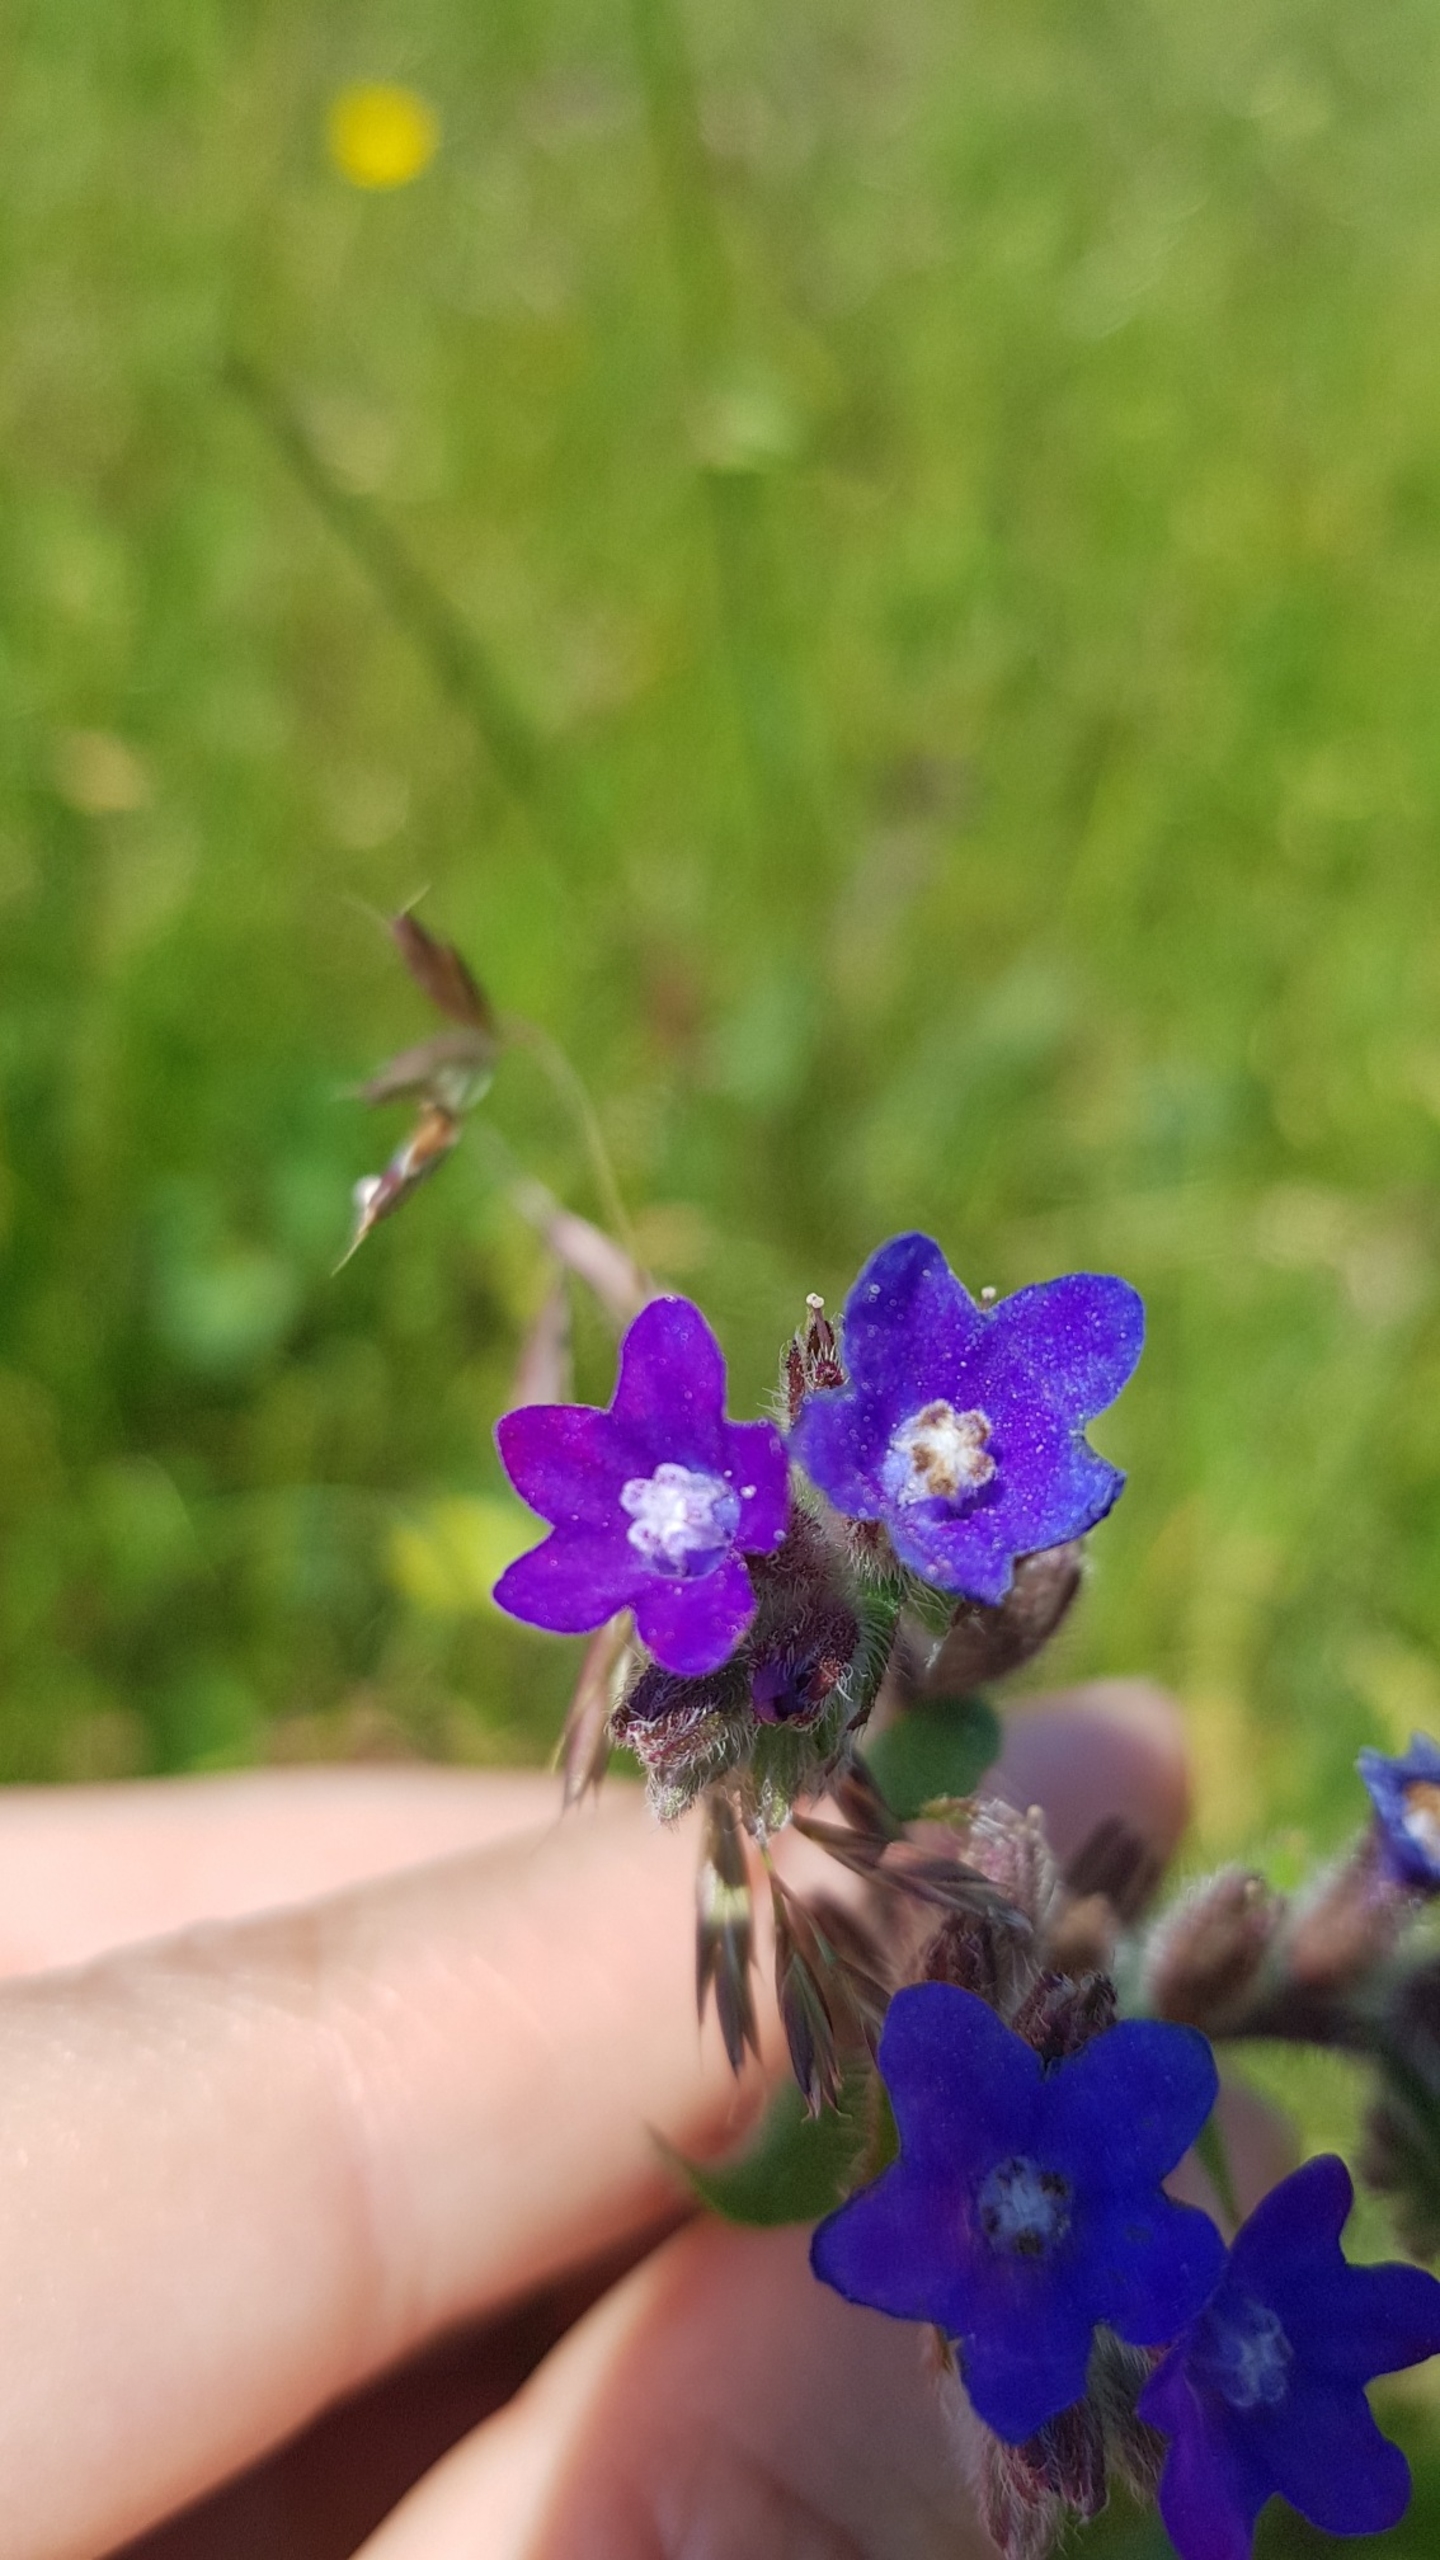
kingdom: Plantae
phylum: Tracheophyta
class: Magnoliopsida
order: Boraginales
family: Boraginaceae
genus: Anchusa
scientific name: Anchusa officinalis
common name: Læge-oksetunge
